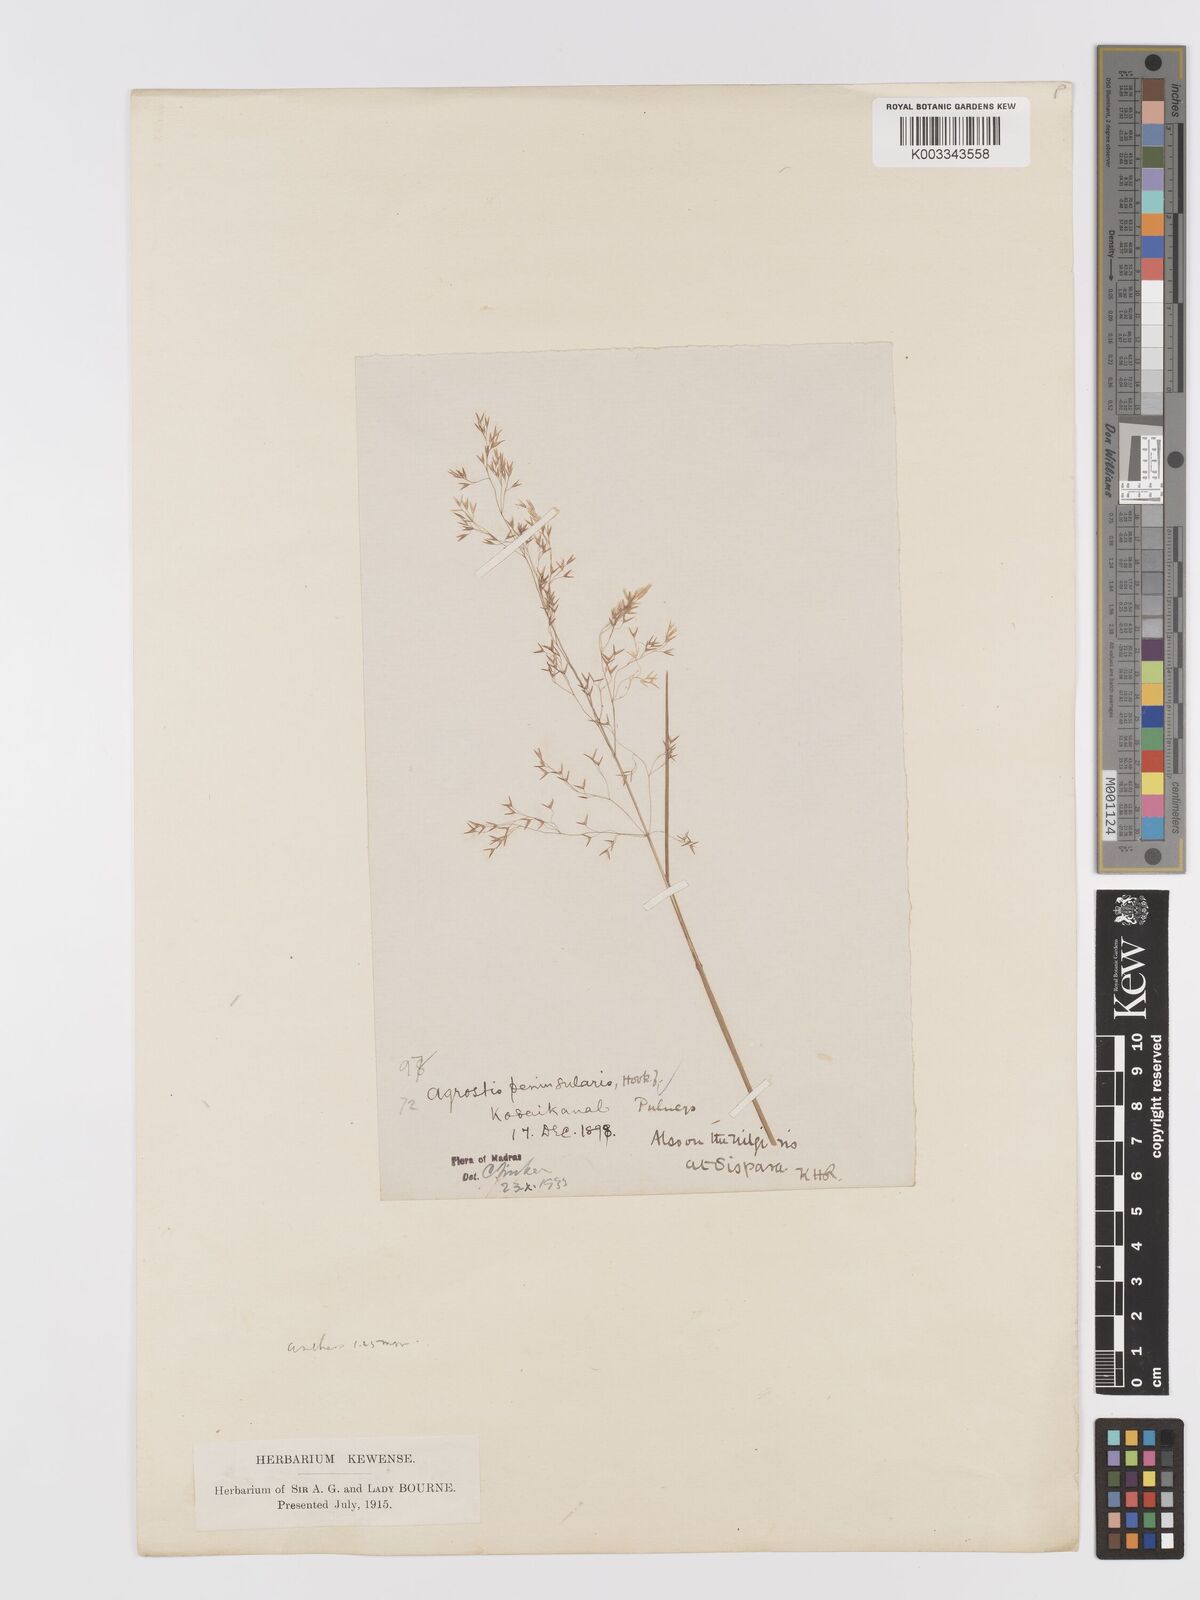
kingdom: Plantae
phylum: Tracheophyta
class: Liliopsida
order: Poales
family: Poaceae
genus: Agrostis
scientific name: Agrostis peninsularis
